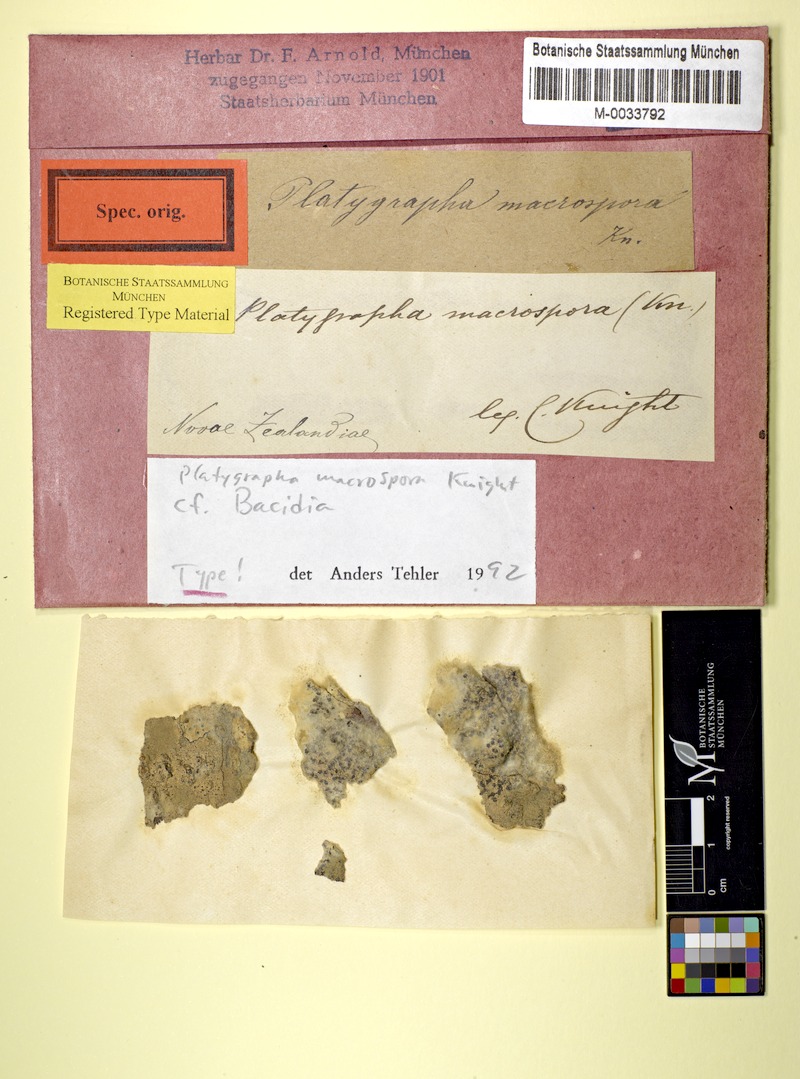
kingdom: Fungi
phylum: Ascomycota
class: Lecanoromycetes
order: Lecanorales
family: Ramalinaceae
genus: Bacidia
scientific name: Bacidia macrospora
